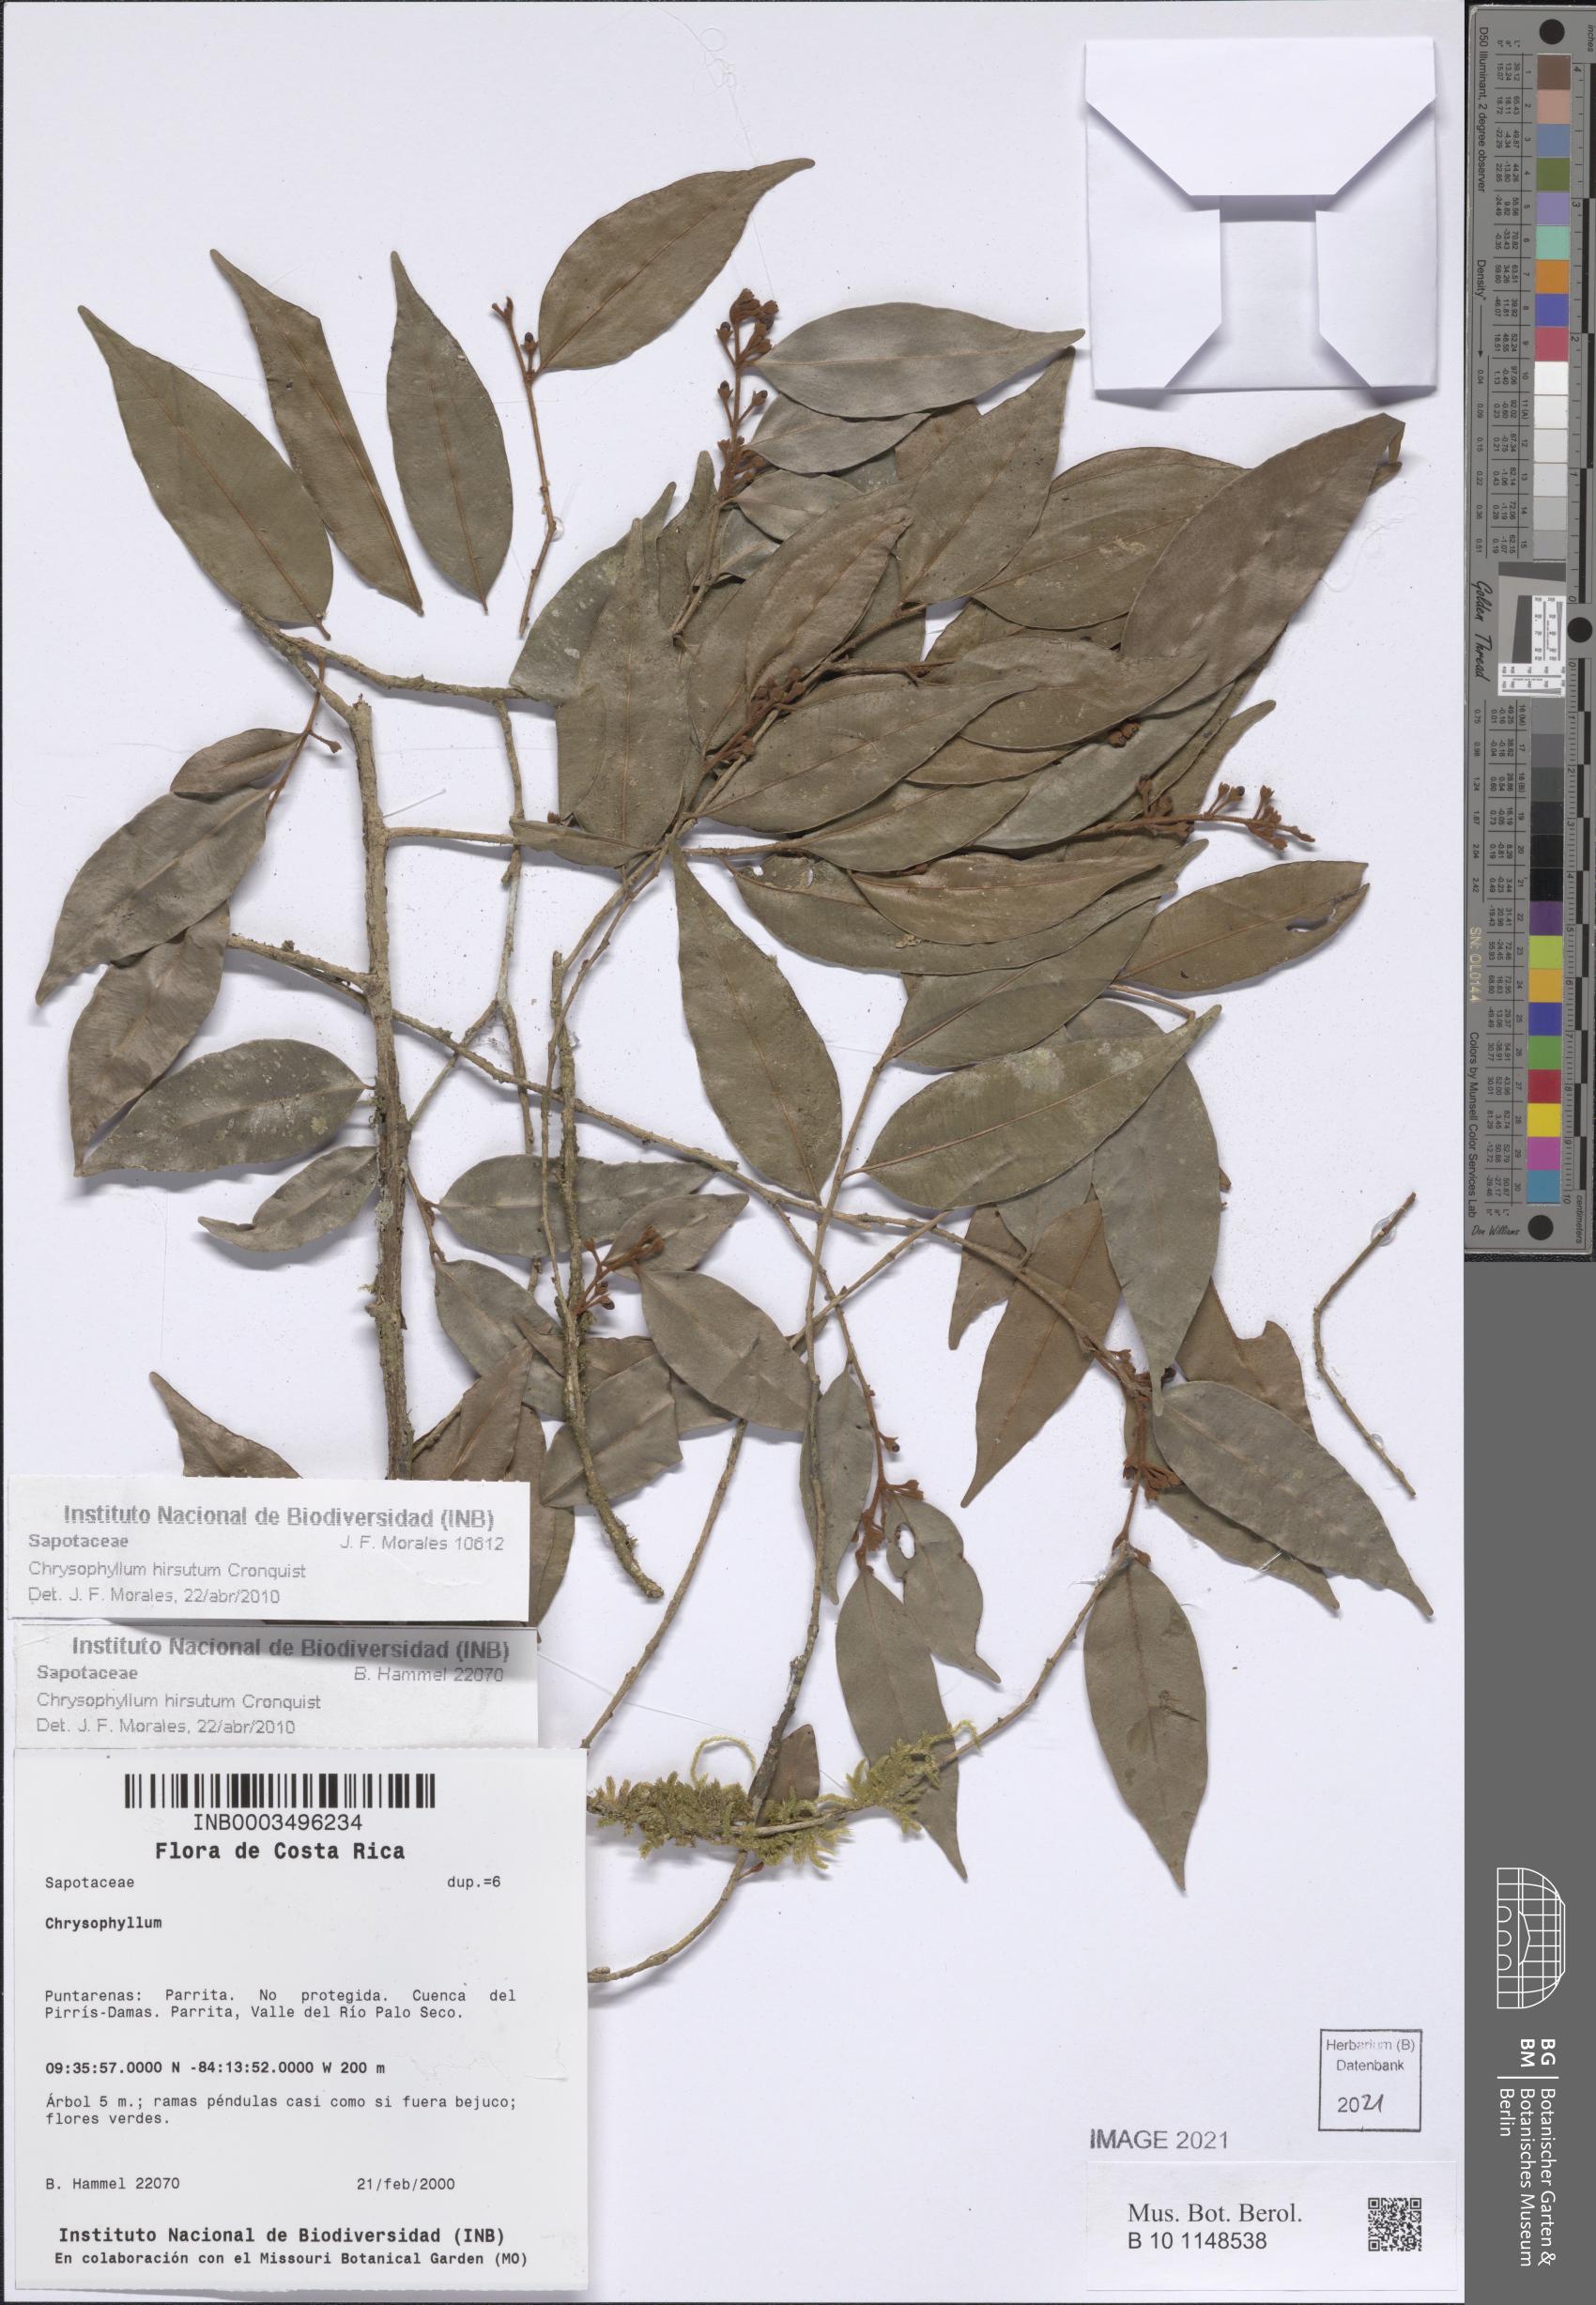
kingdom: Plantae
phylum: Tracheophyta
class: Magnoliopsida
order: Ericales
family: Sapotaceae
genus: Chrysophyllum
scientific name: Chrysophyllum hirsutum
